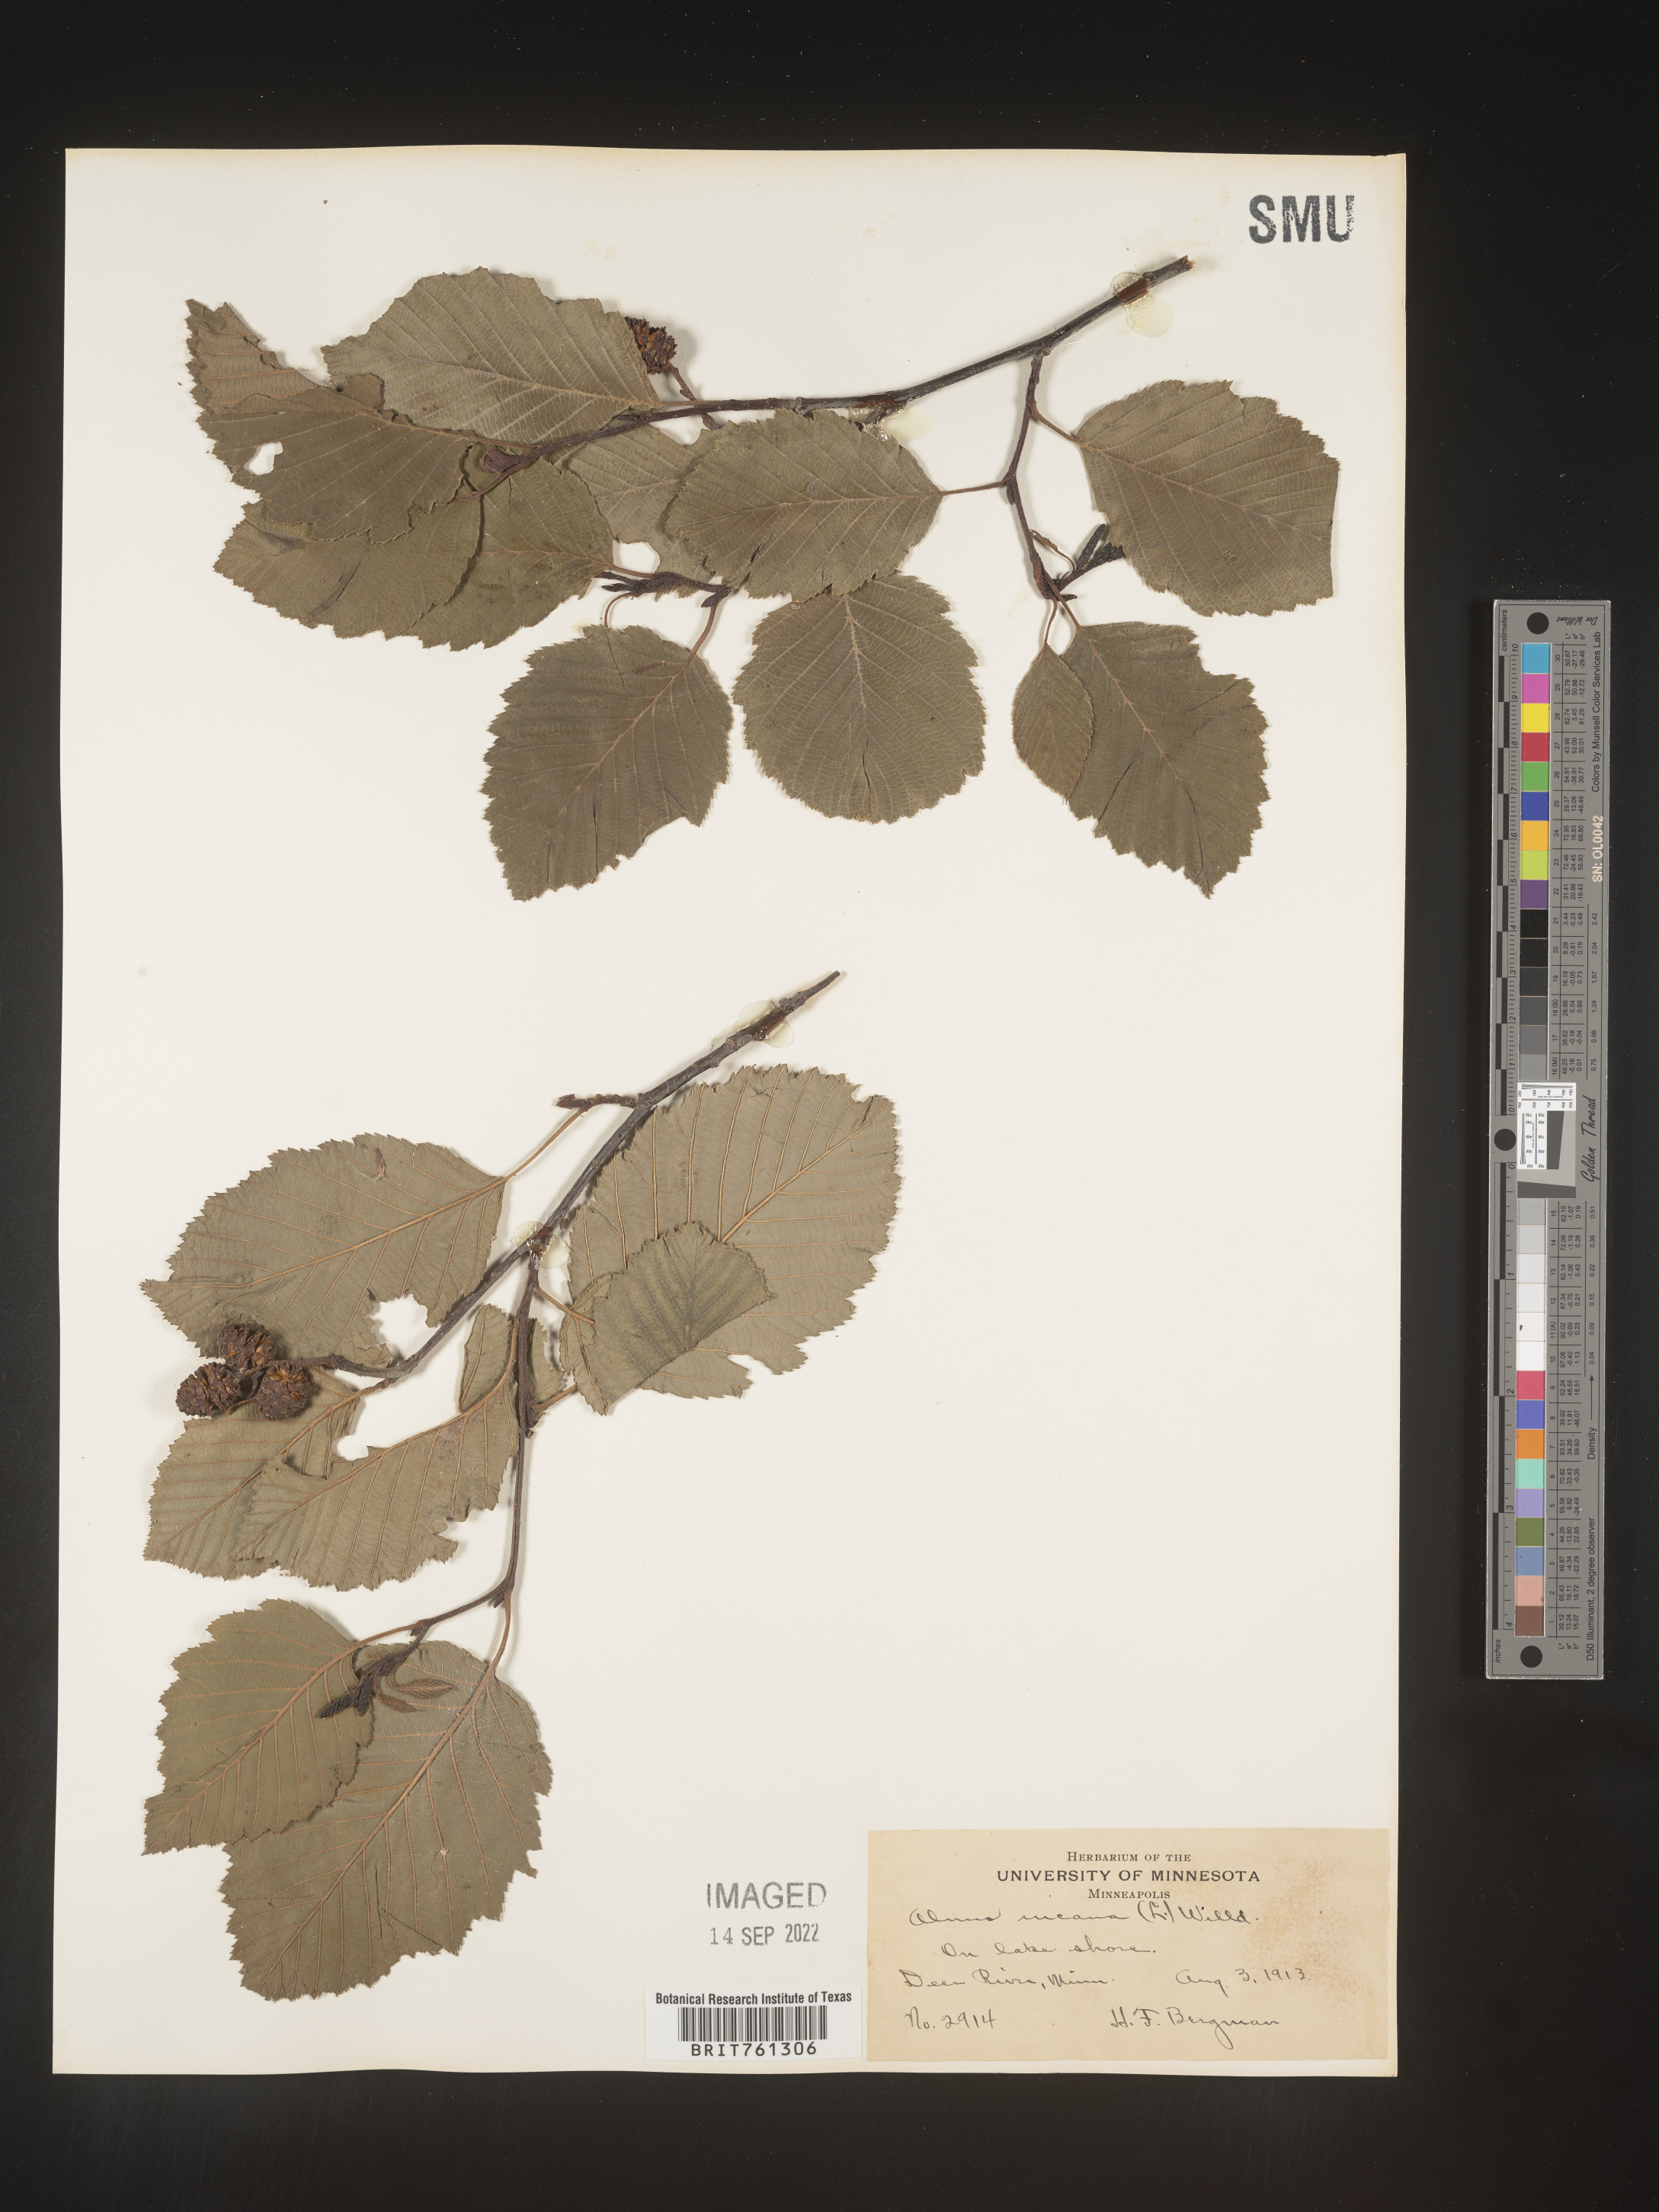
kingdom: Plantae
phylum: Tracheophyta
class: Magnoliopsida
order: Fagales
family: Betulaceae
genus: Alnus
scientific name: Alnus incana
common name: Grey alder
